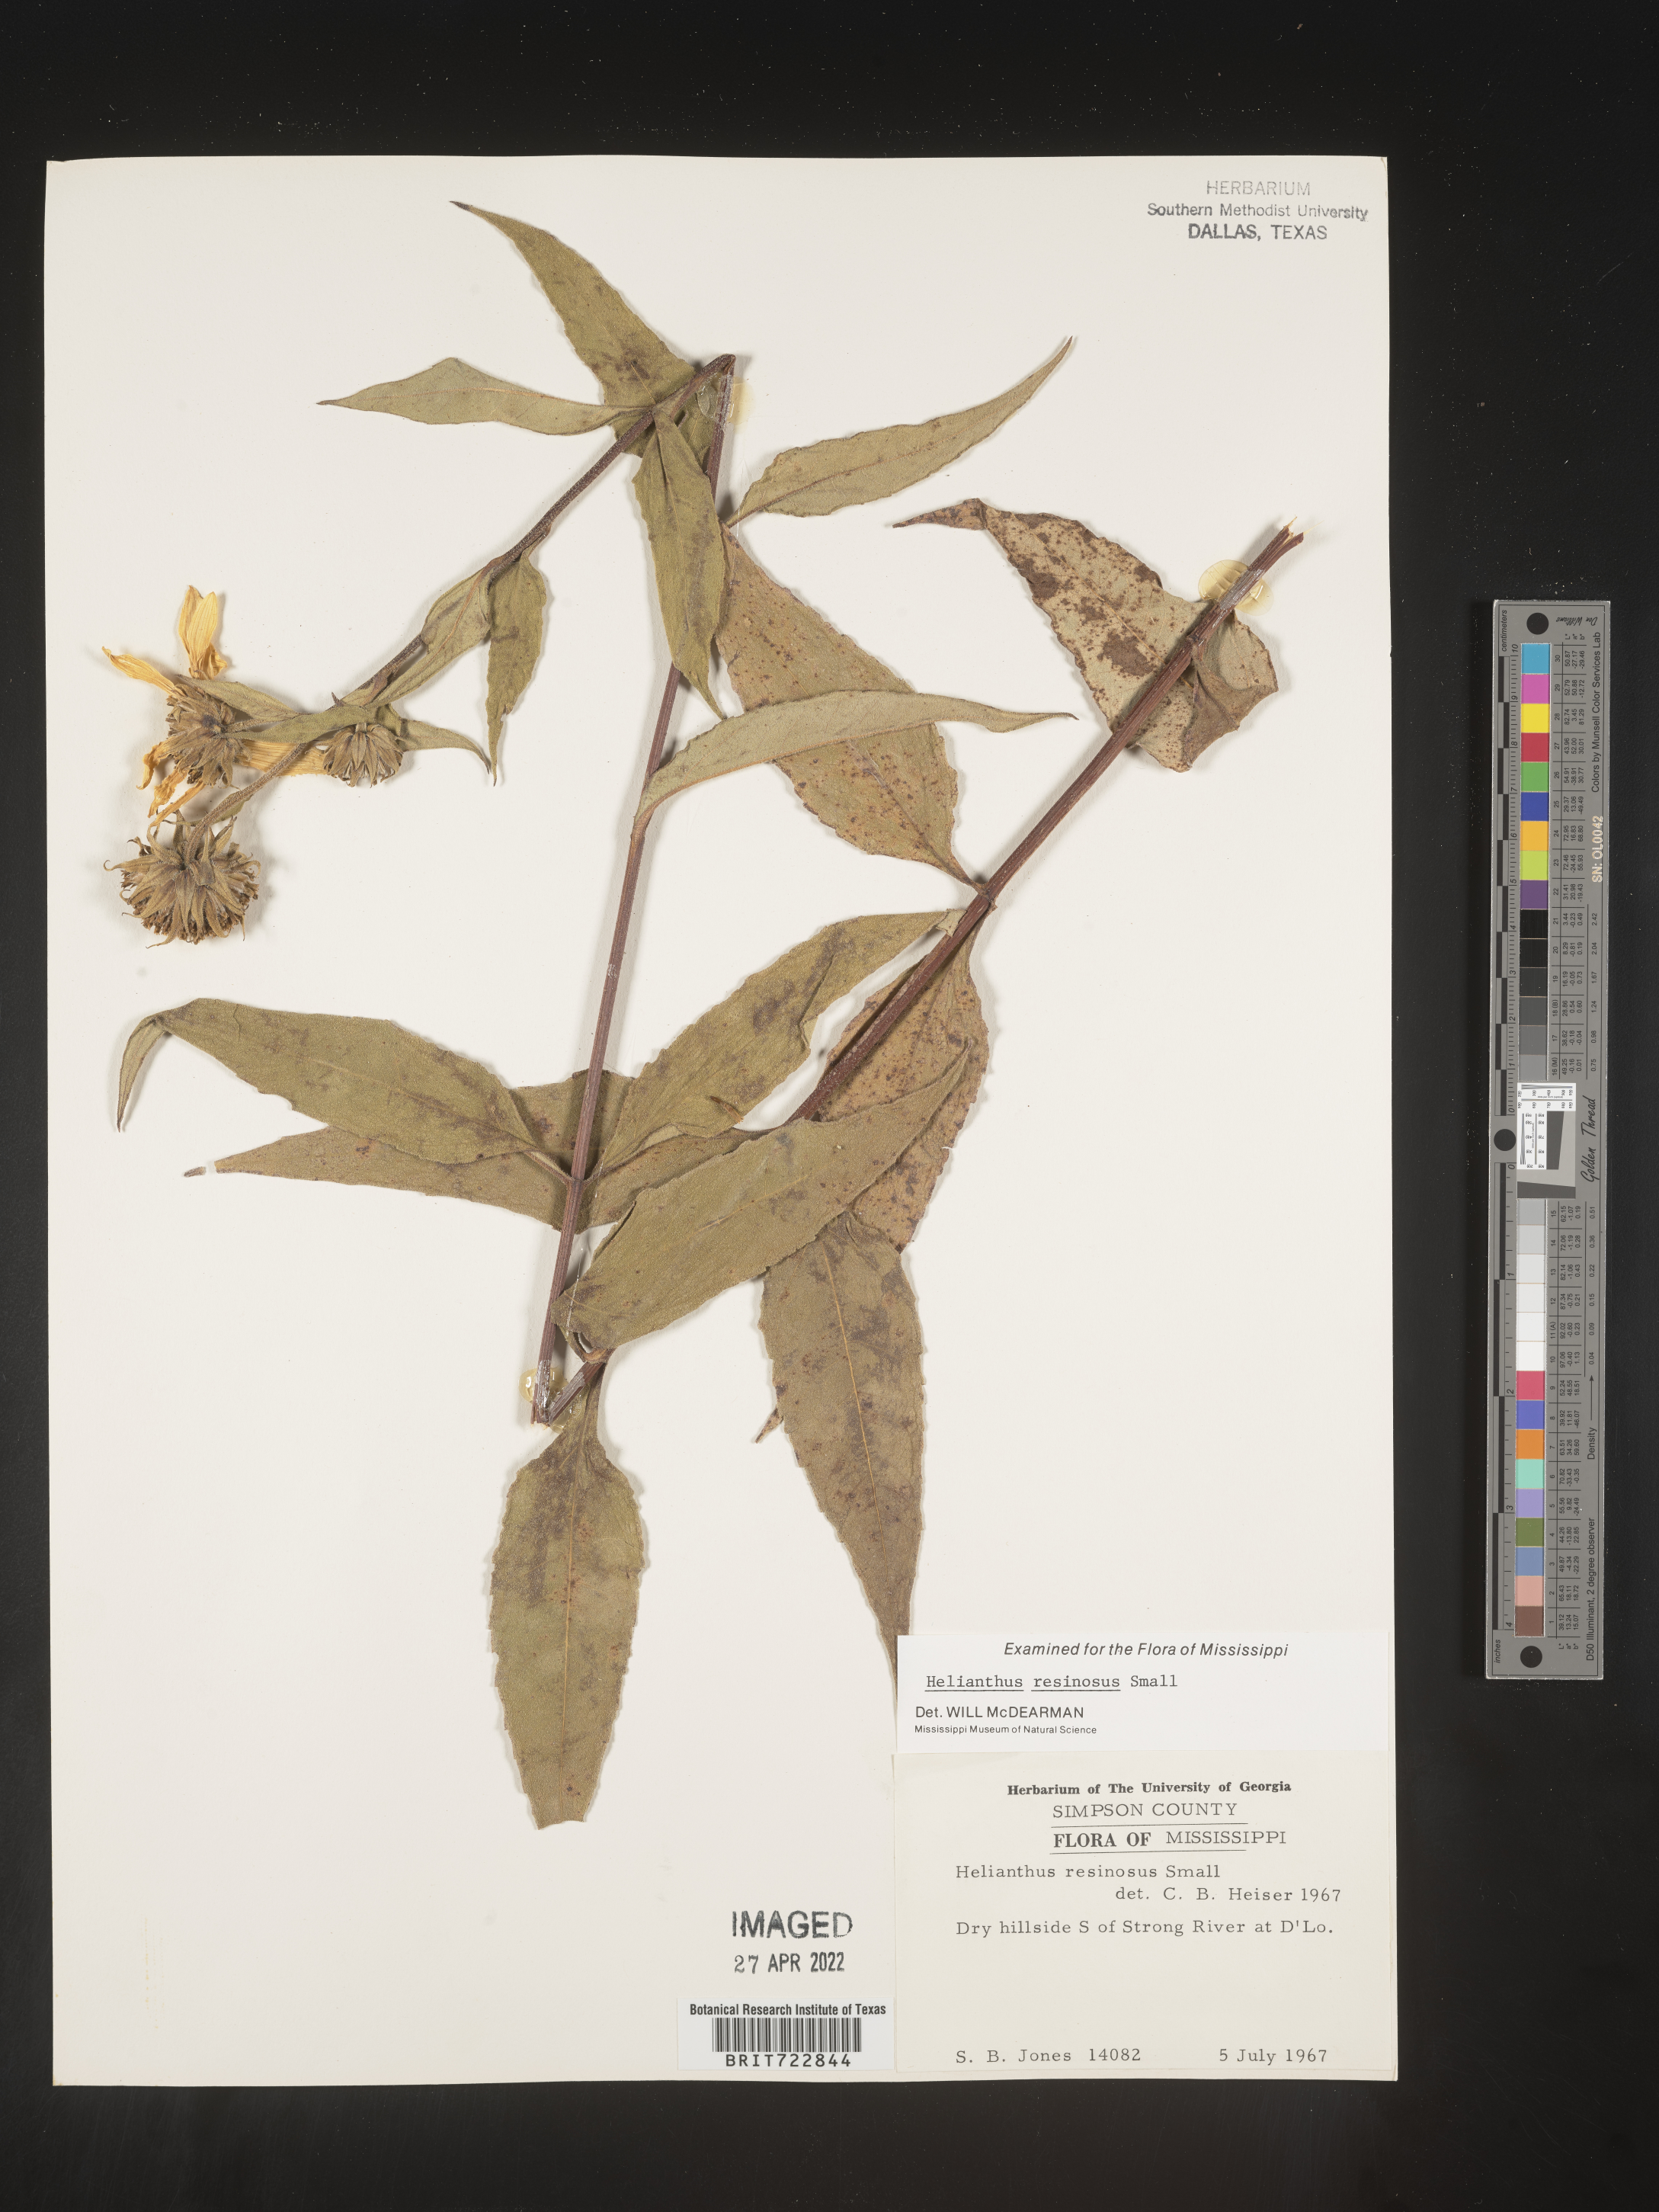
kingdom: Plantae
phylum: Tracheophyta
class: Magnoliopsida
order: Asterales
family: Asteraceae
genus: Helianthus
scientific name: Helianthus resinosus
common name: Resin-dot sunflower
